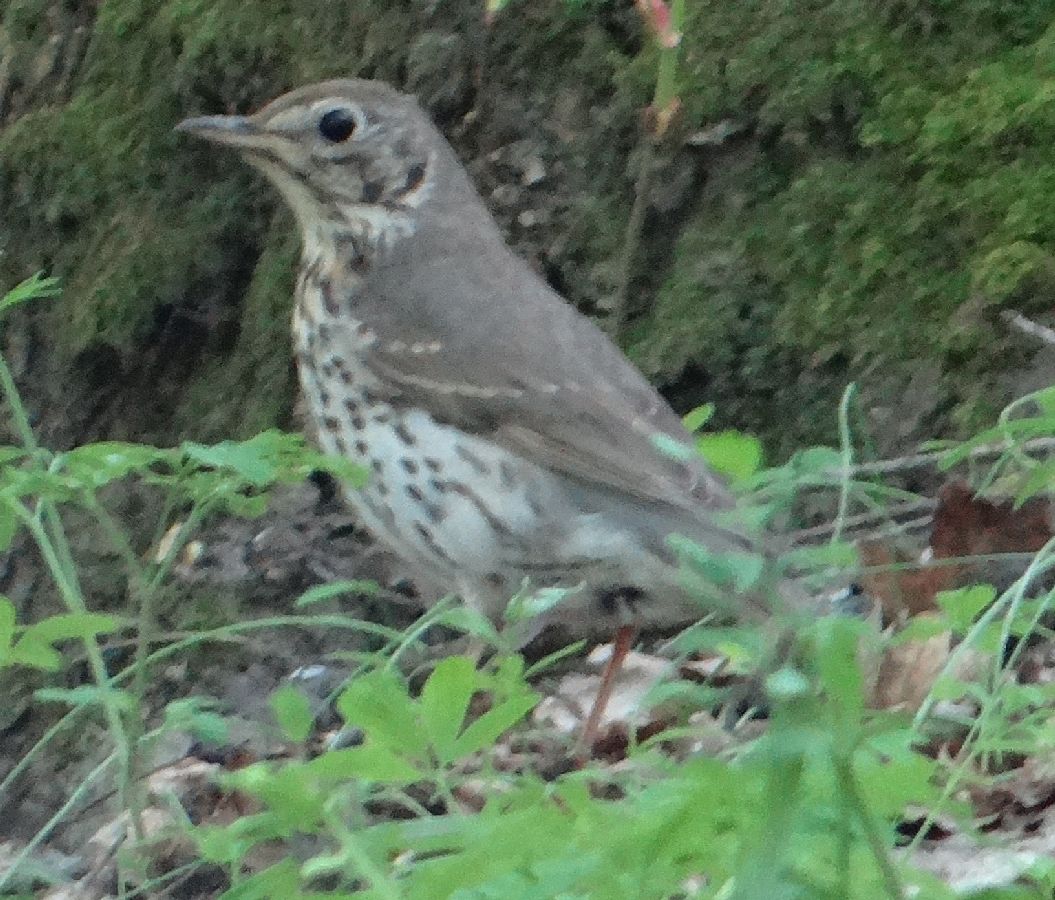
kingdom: Animalia
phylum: Chordata
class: Aves
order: Passeriformes
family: Turdidae
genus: Turdus
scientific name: Turdus philomelos
